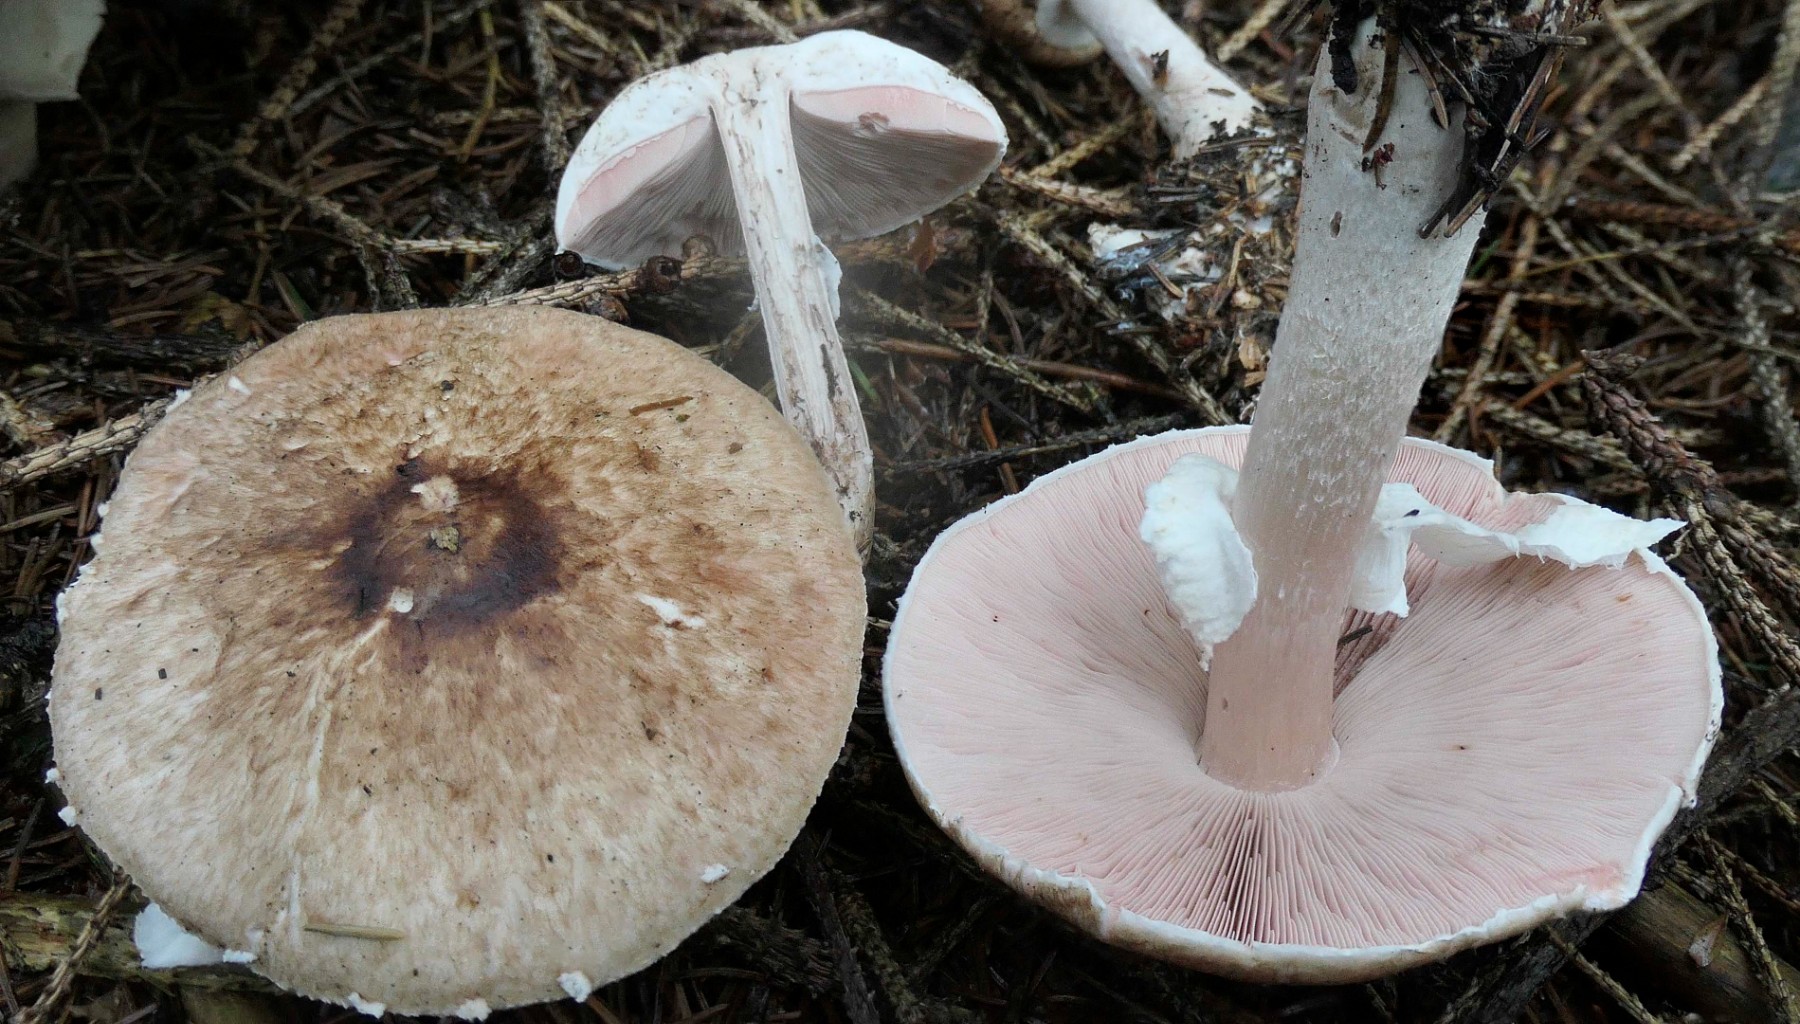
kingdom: Fungi
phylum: Basidiomycota
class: Agaricomycetes
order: Agaricales
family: Agaricaceae
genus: Agaricus
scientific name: Agaricus impudicus
